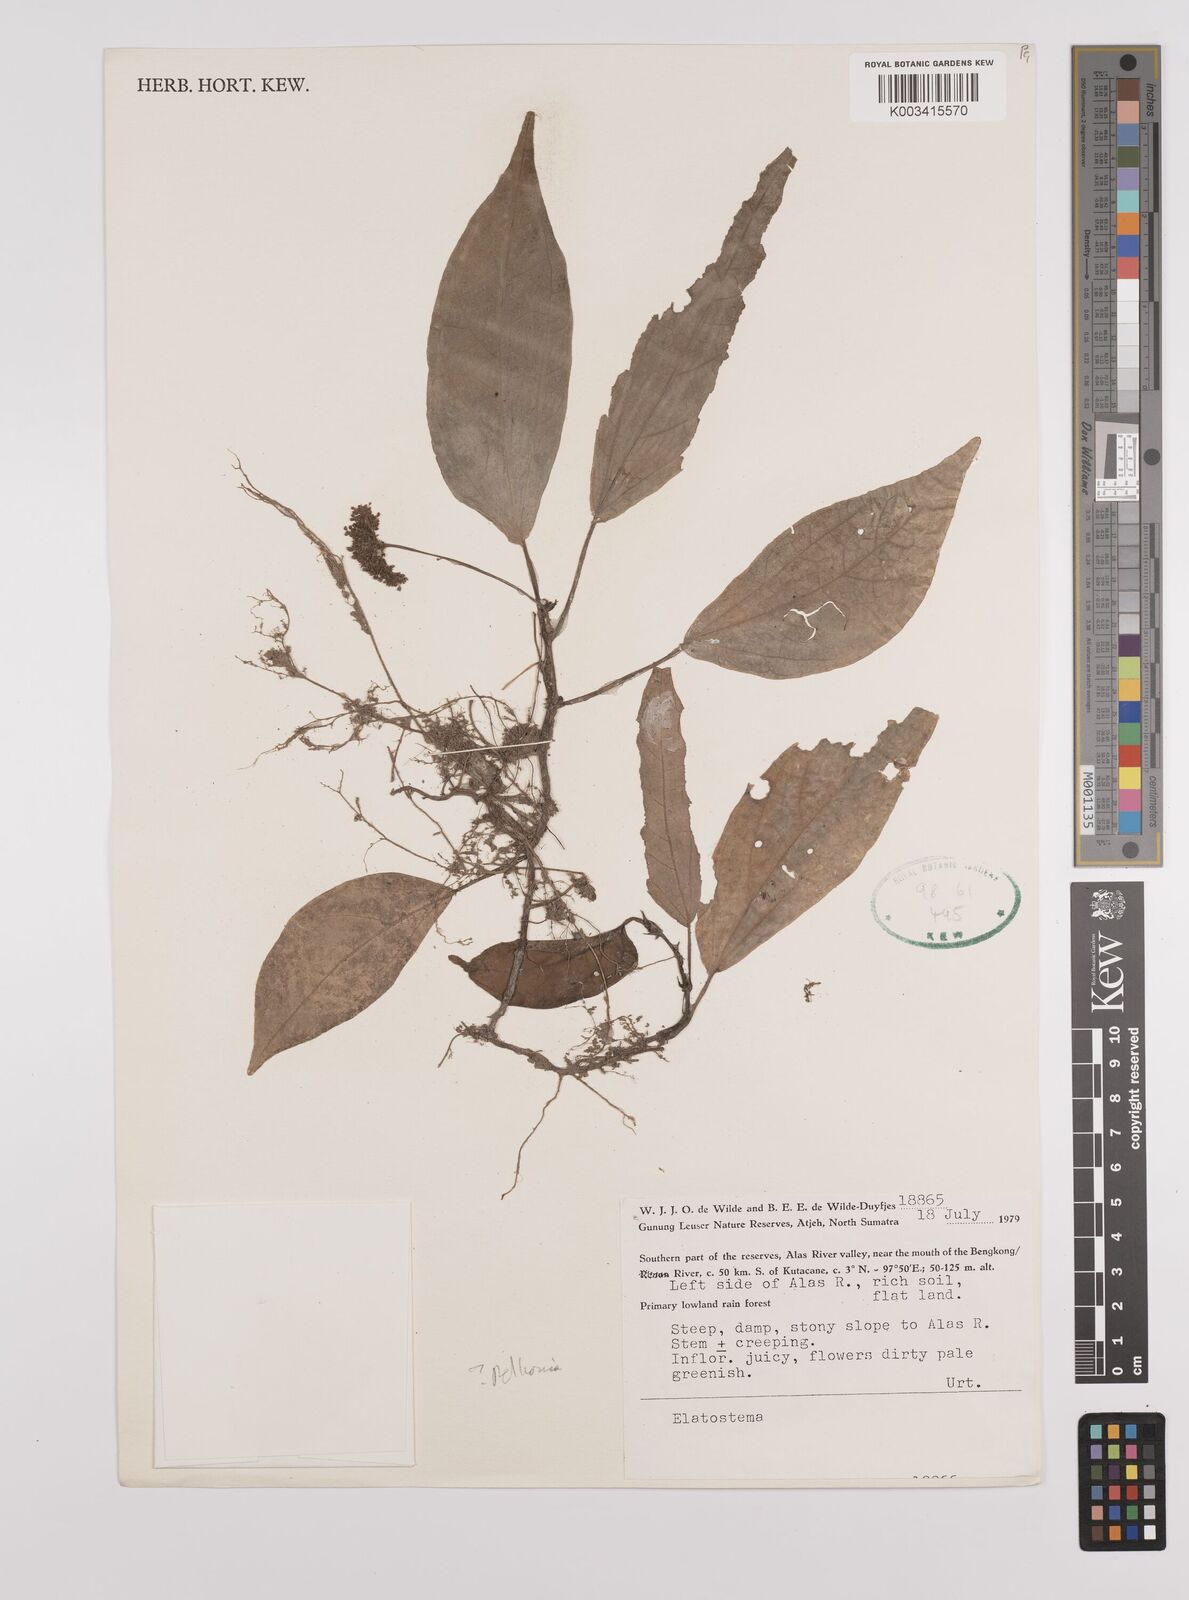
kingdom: Plantae
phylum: Tracheophyta
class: Magnoliopsida
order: Rosales
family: Urticaceae
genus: Elatostema
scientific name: Elatostema
